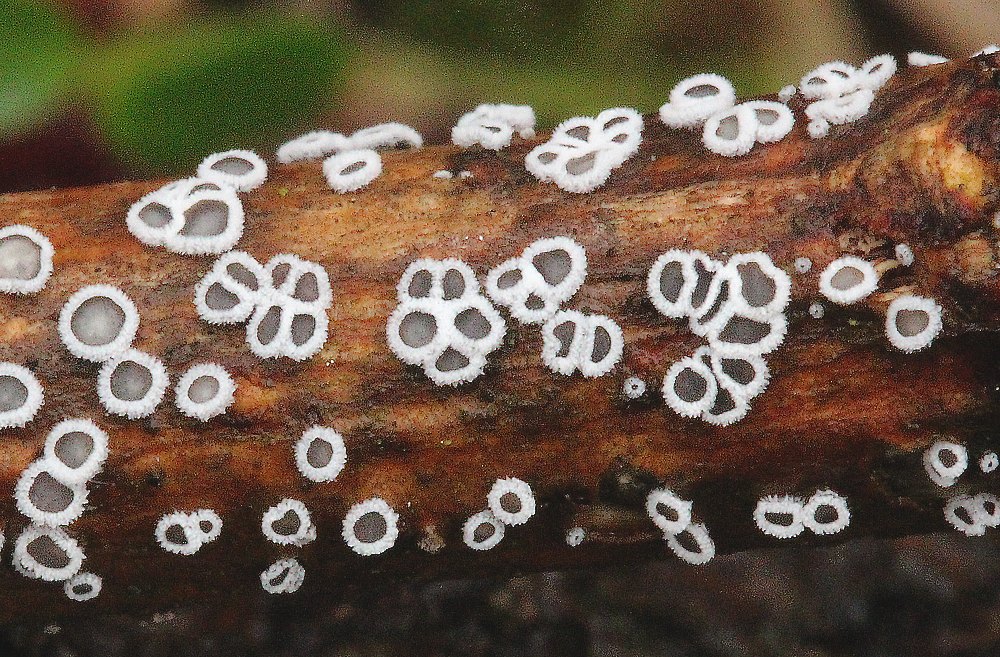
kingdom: Fungi
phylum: Basidiomycota
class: Agaricomycetes
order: Agaricales
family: Niaceae
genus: Lachnella
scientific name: Lachnella alboviolascens
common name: grå frynserede
